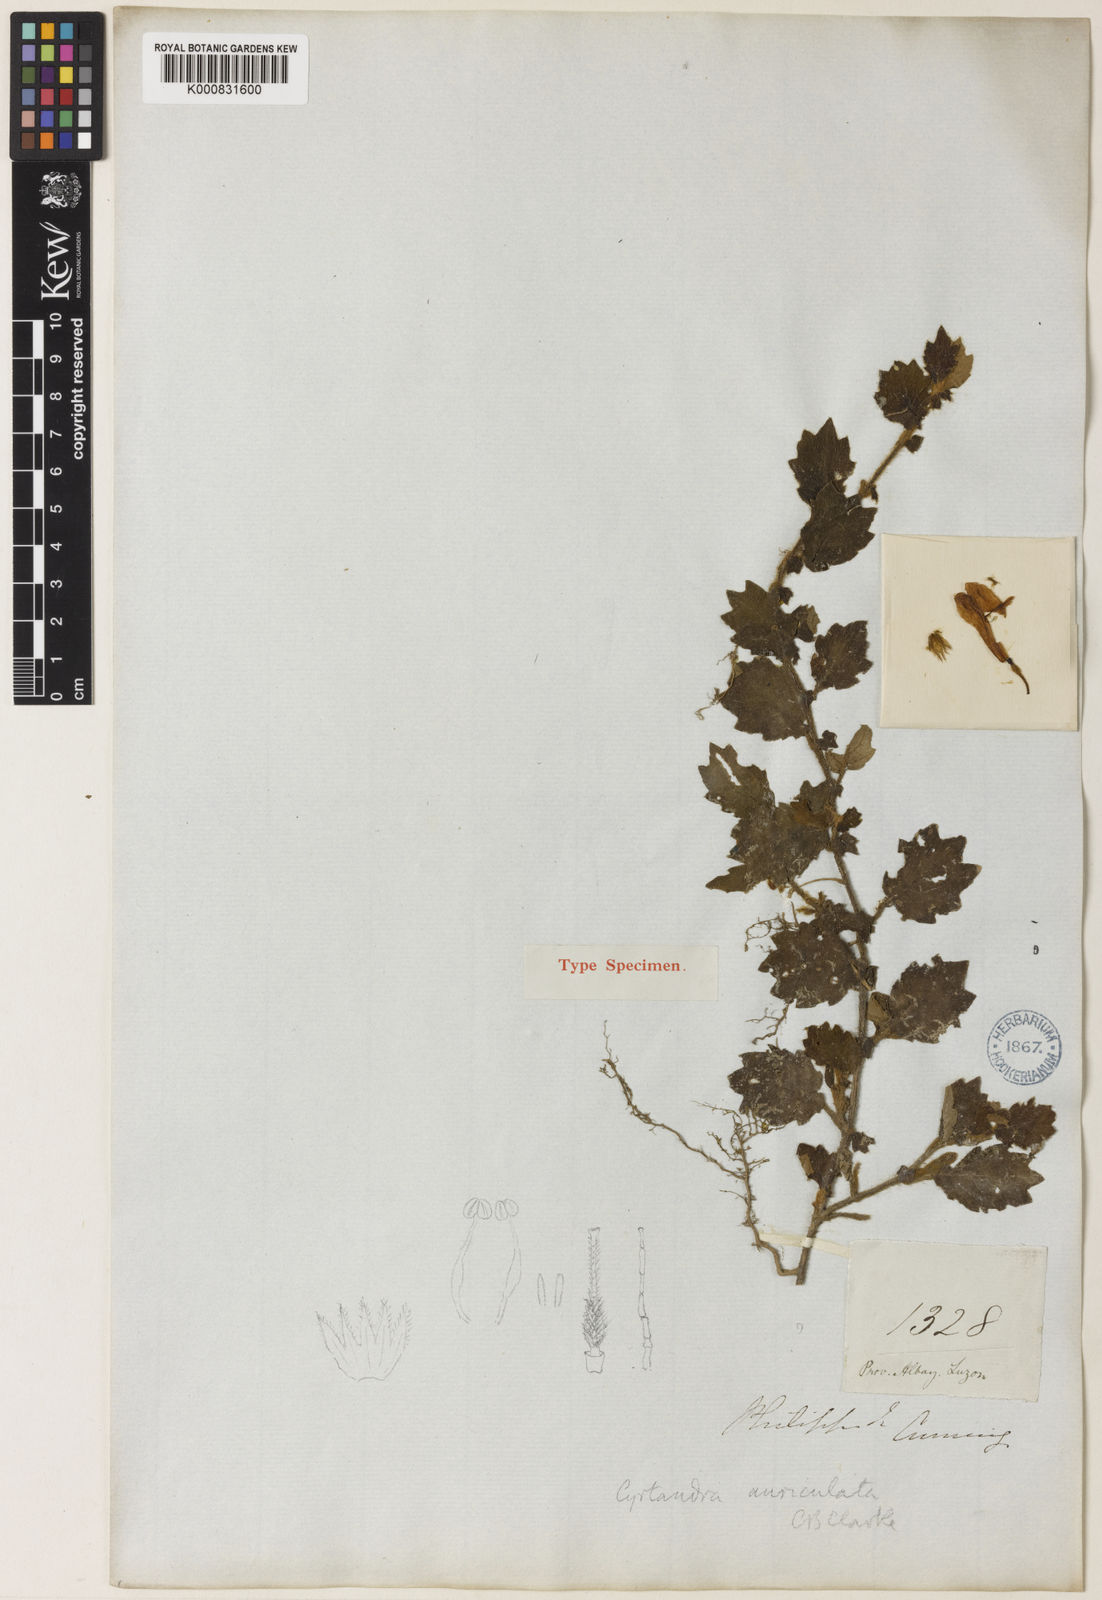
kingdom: Plantae
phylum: Tracheophyta
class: Magnoliopsida
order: Lamiales
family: Gesneriaceae
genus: Cyrtandra
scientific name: Cyrtandra auriculata
